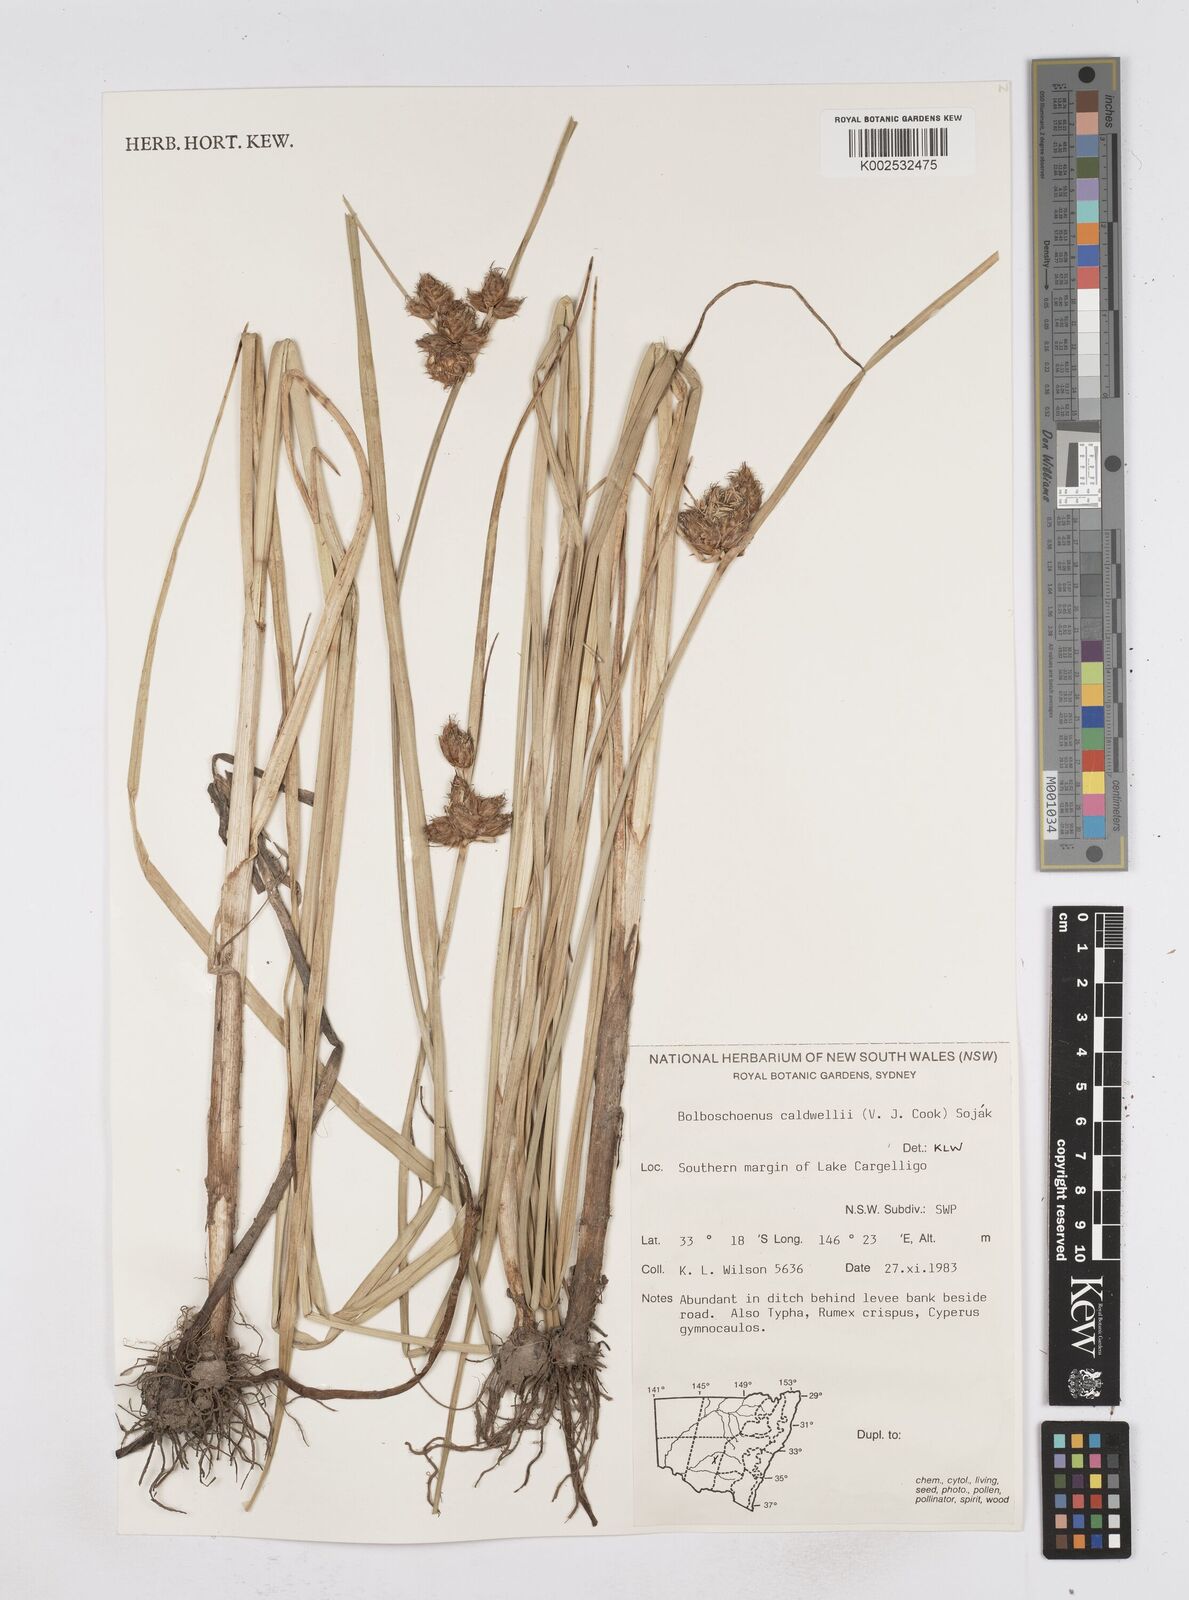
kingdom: Plantae
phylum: Tracheophyta
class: Liliopsida
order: Poales
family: Cyperaceae
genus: Bolboschoenus
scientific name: Bolboschoenus caldwellii
